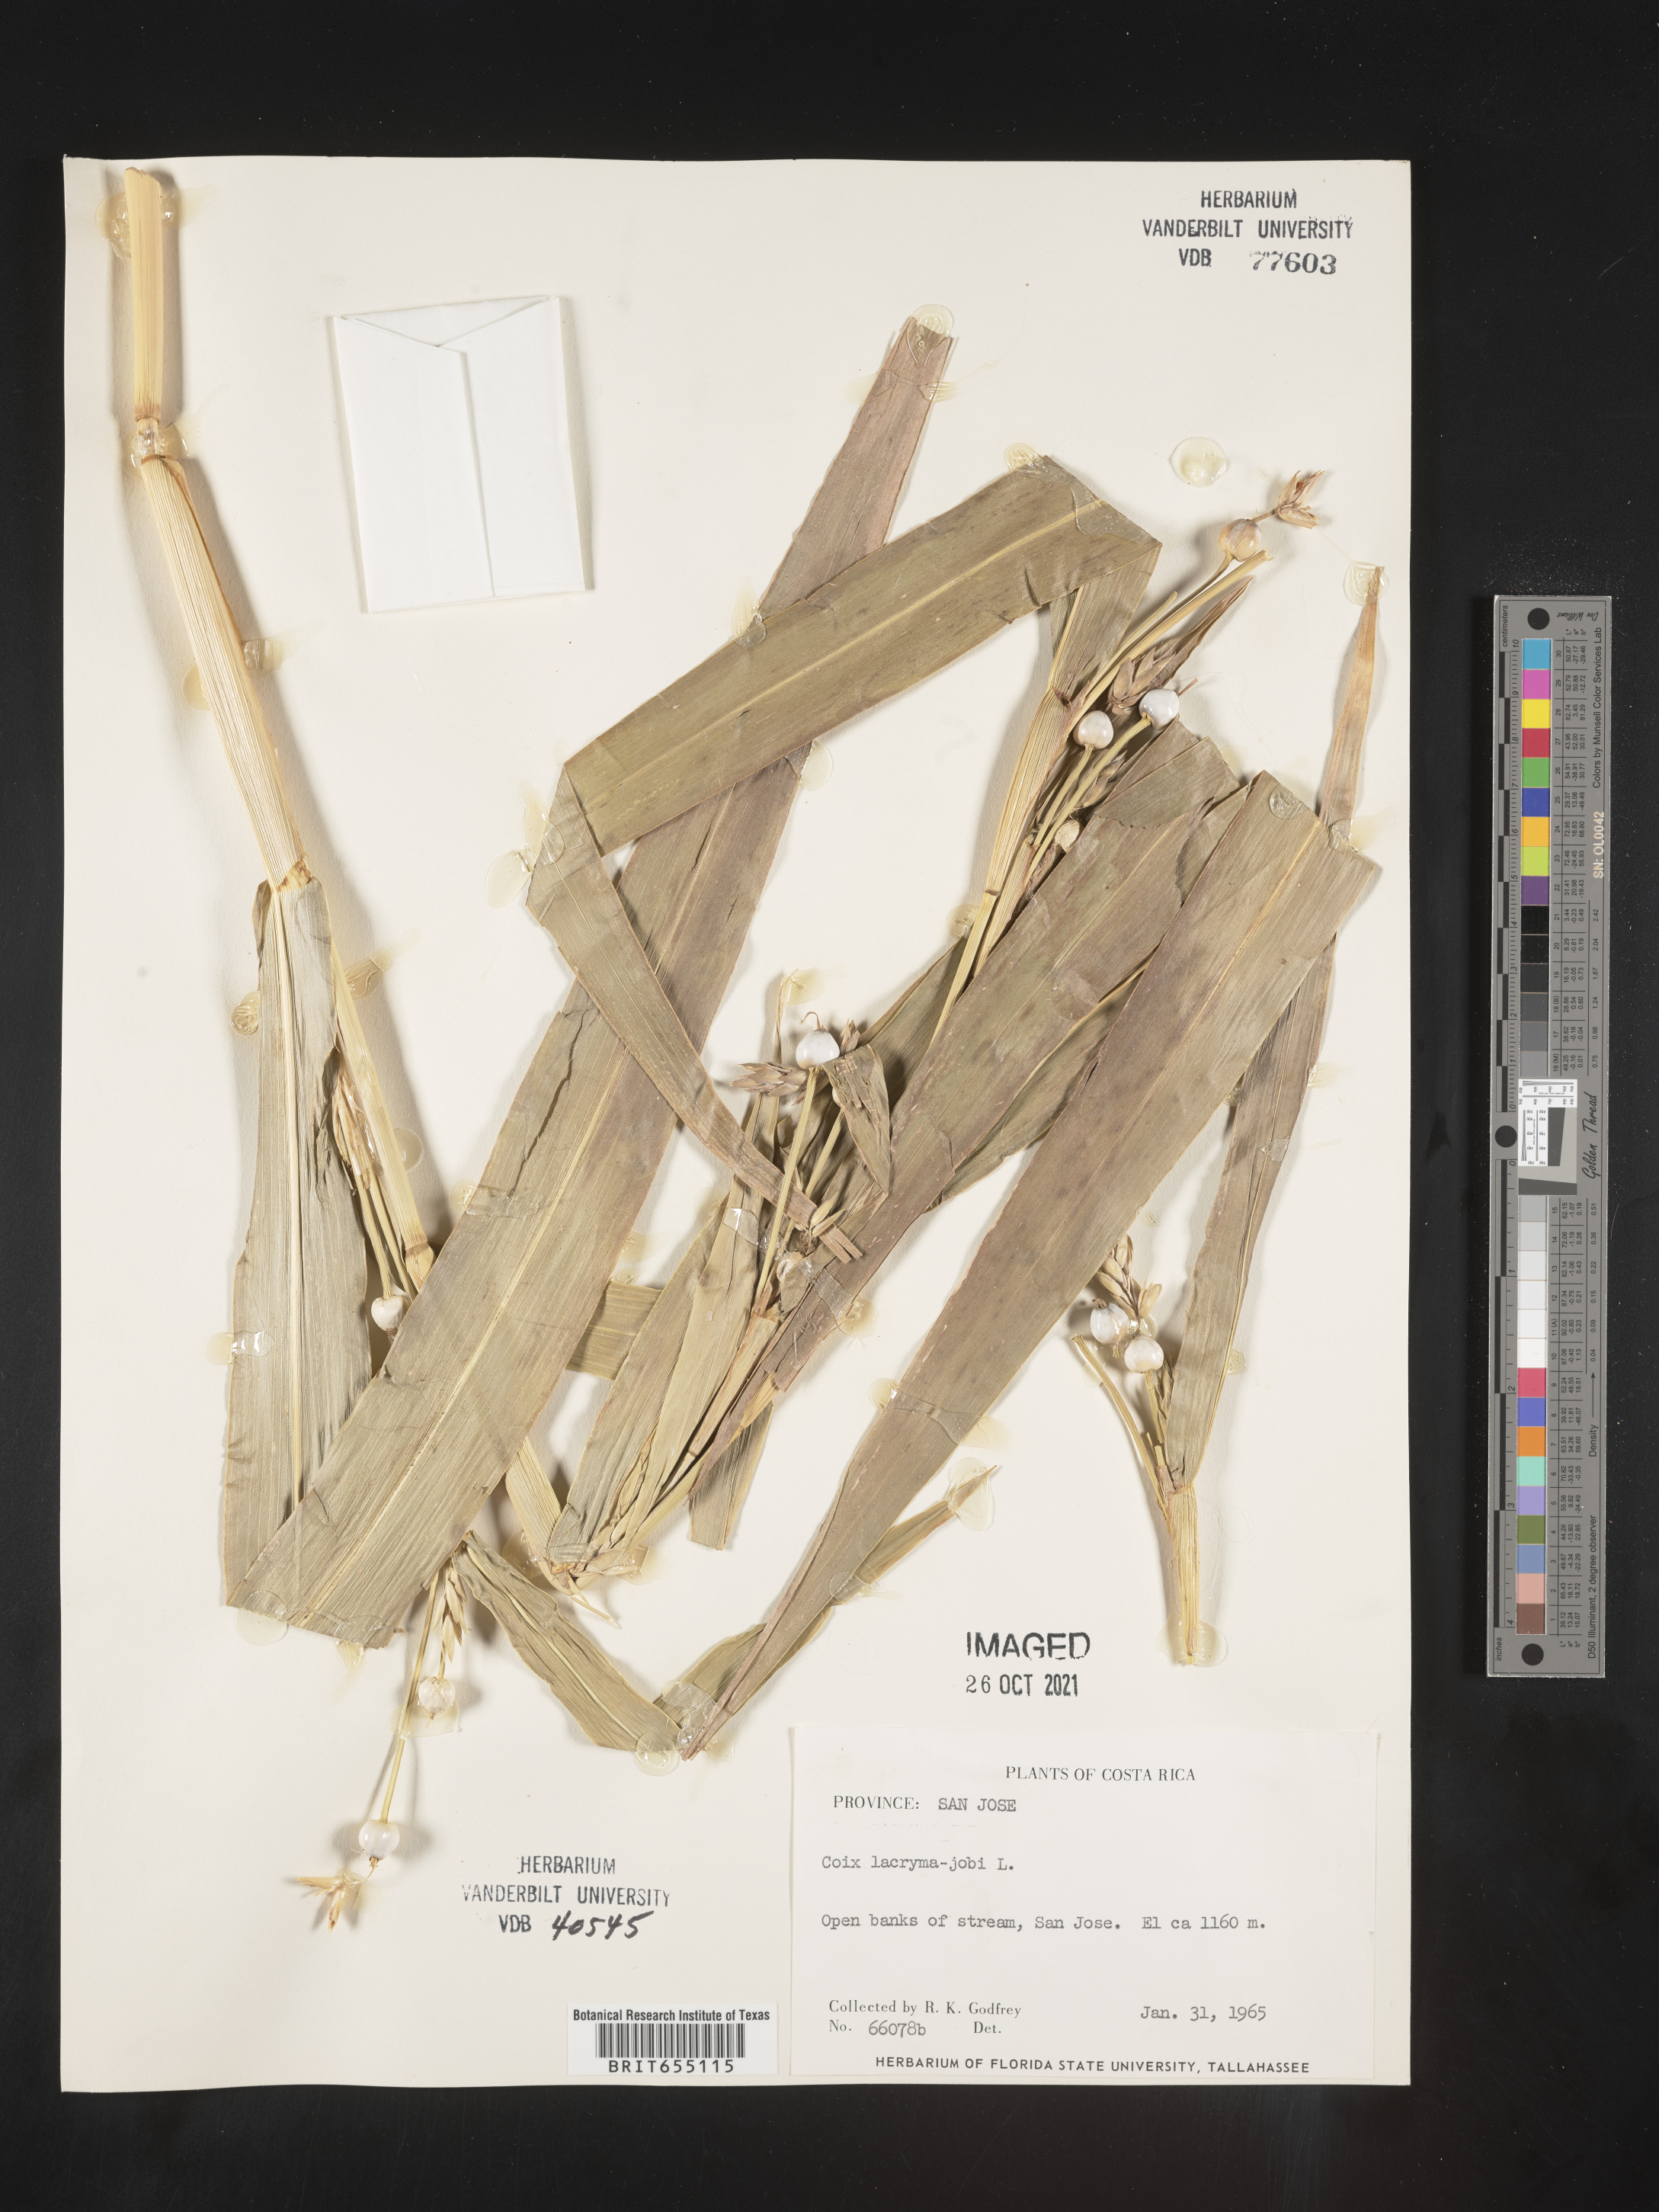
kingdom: Plantae
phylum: Tracheophyta
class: Liliopsida
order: Poales
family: Poaceae
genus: Coix
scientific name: Coix
